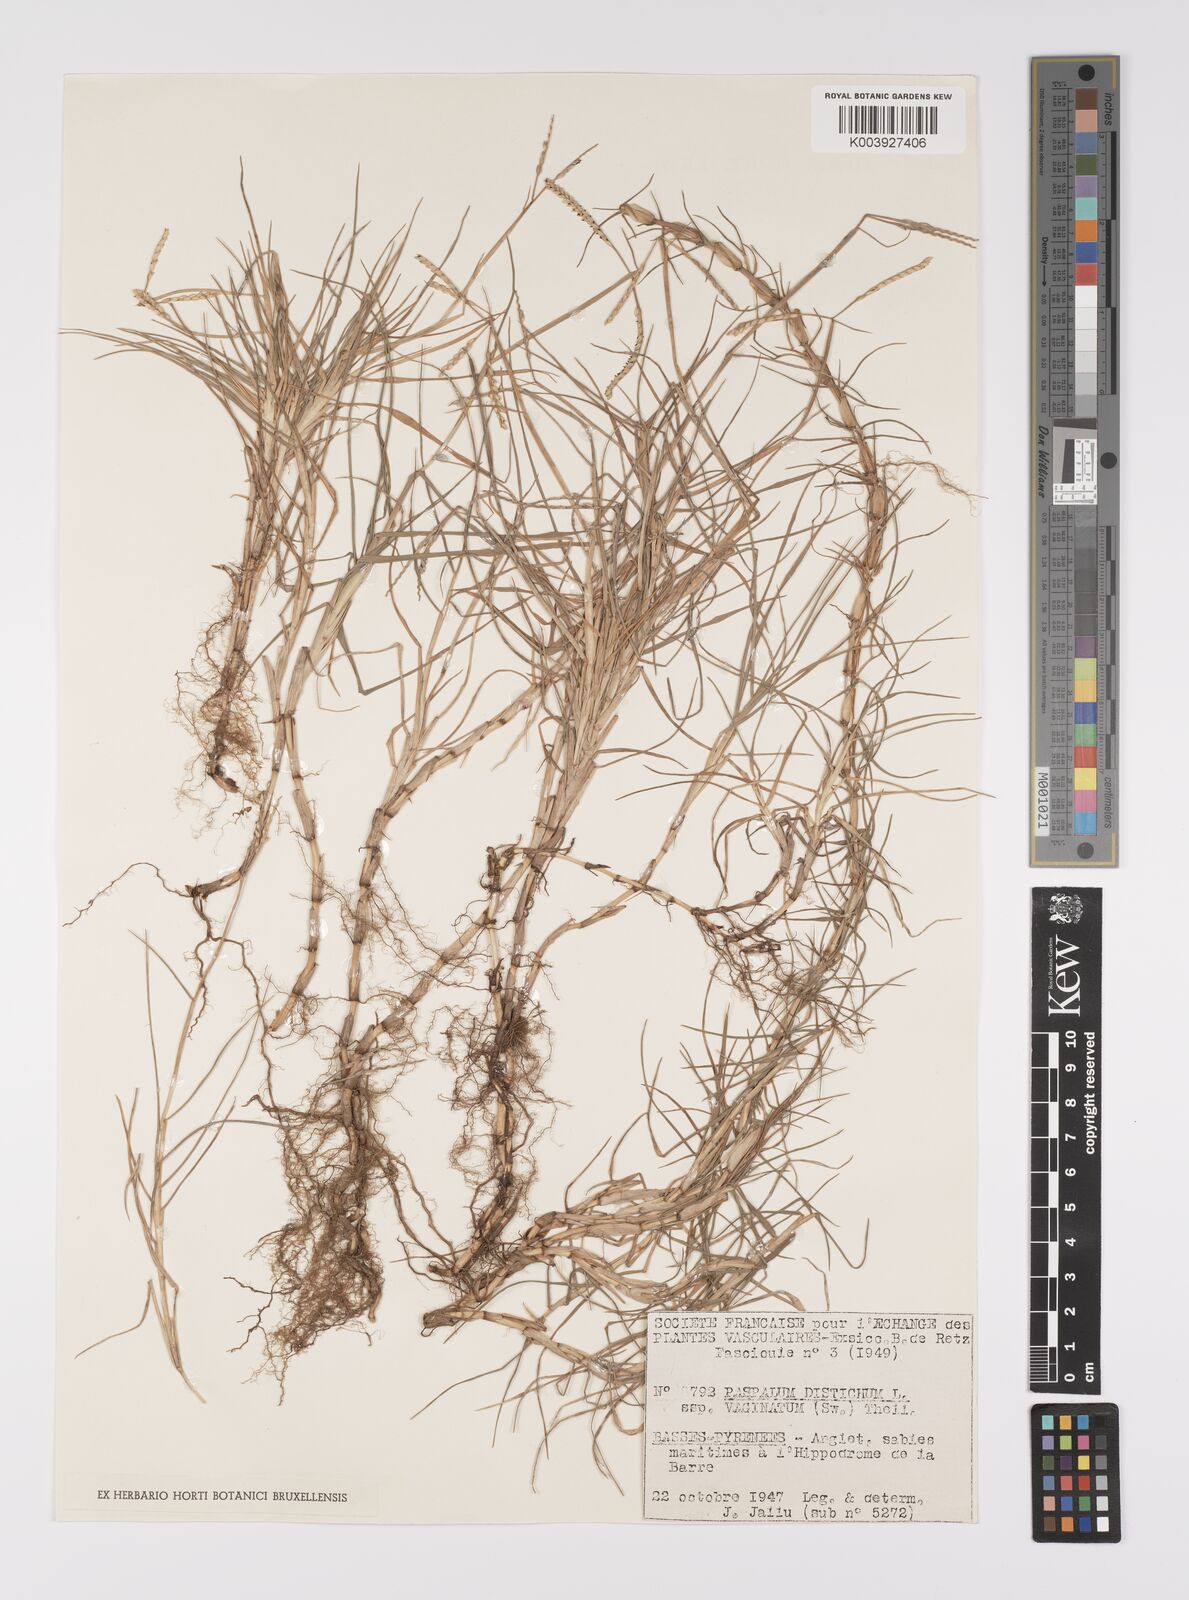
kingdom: Plantae
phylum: Tracheophyta
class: Liliopsida
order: Poales
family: Poaceae
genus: Paspalum
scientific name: Paspalum vaginatum
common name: Seashore paspalum
